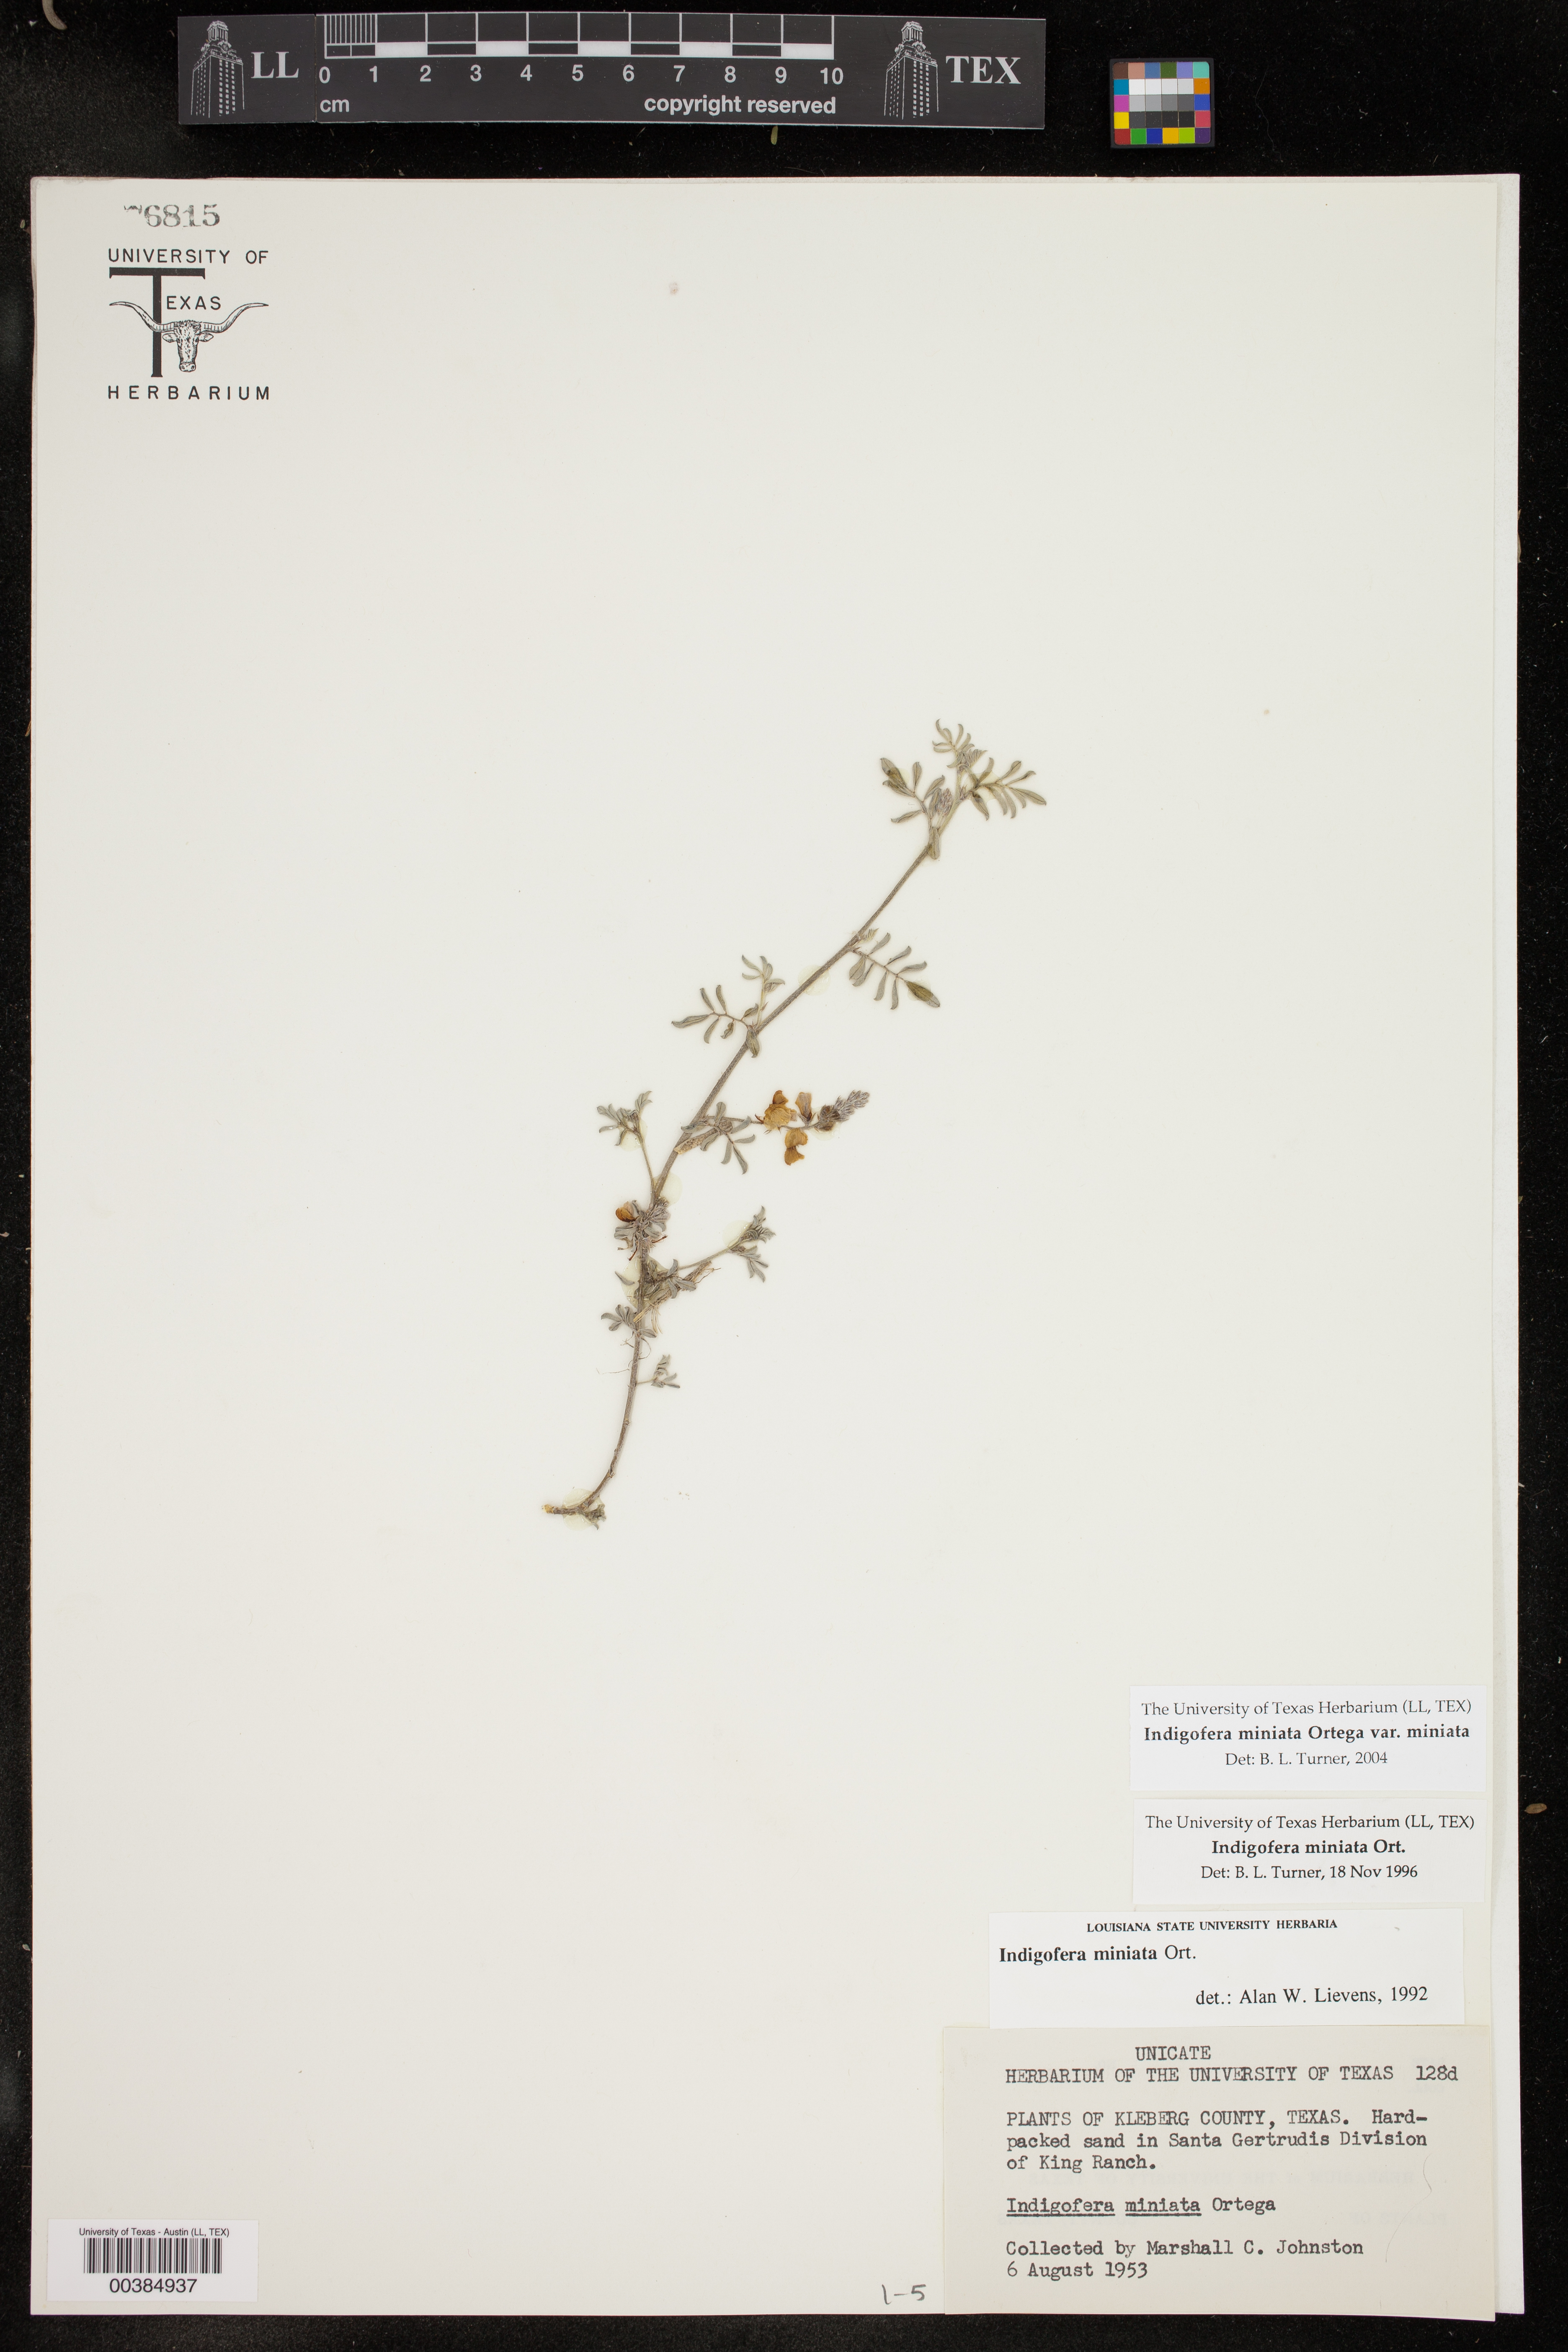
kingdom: Plantae
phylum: Tracheophyta
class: Magnoliopsida
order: Fabales
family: Fabaceae
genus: Indigofera
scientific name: Indigofera miniata
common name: Coast indigo
